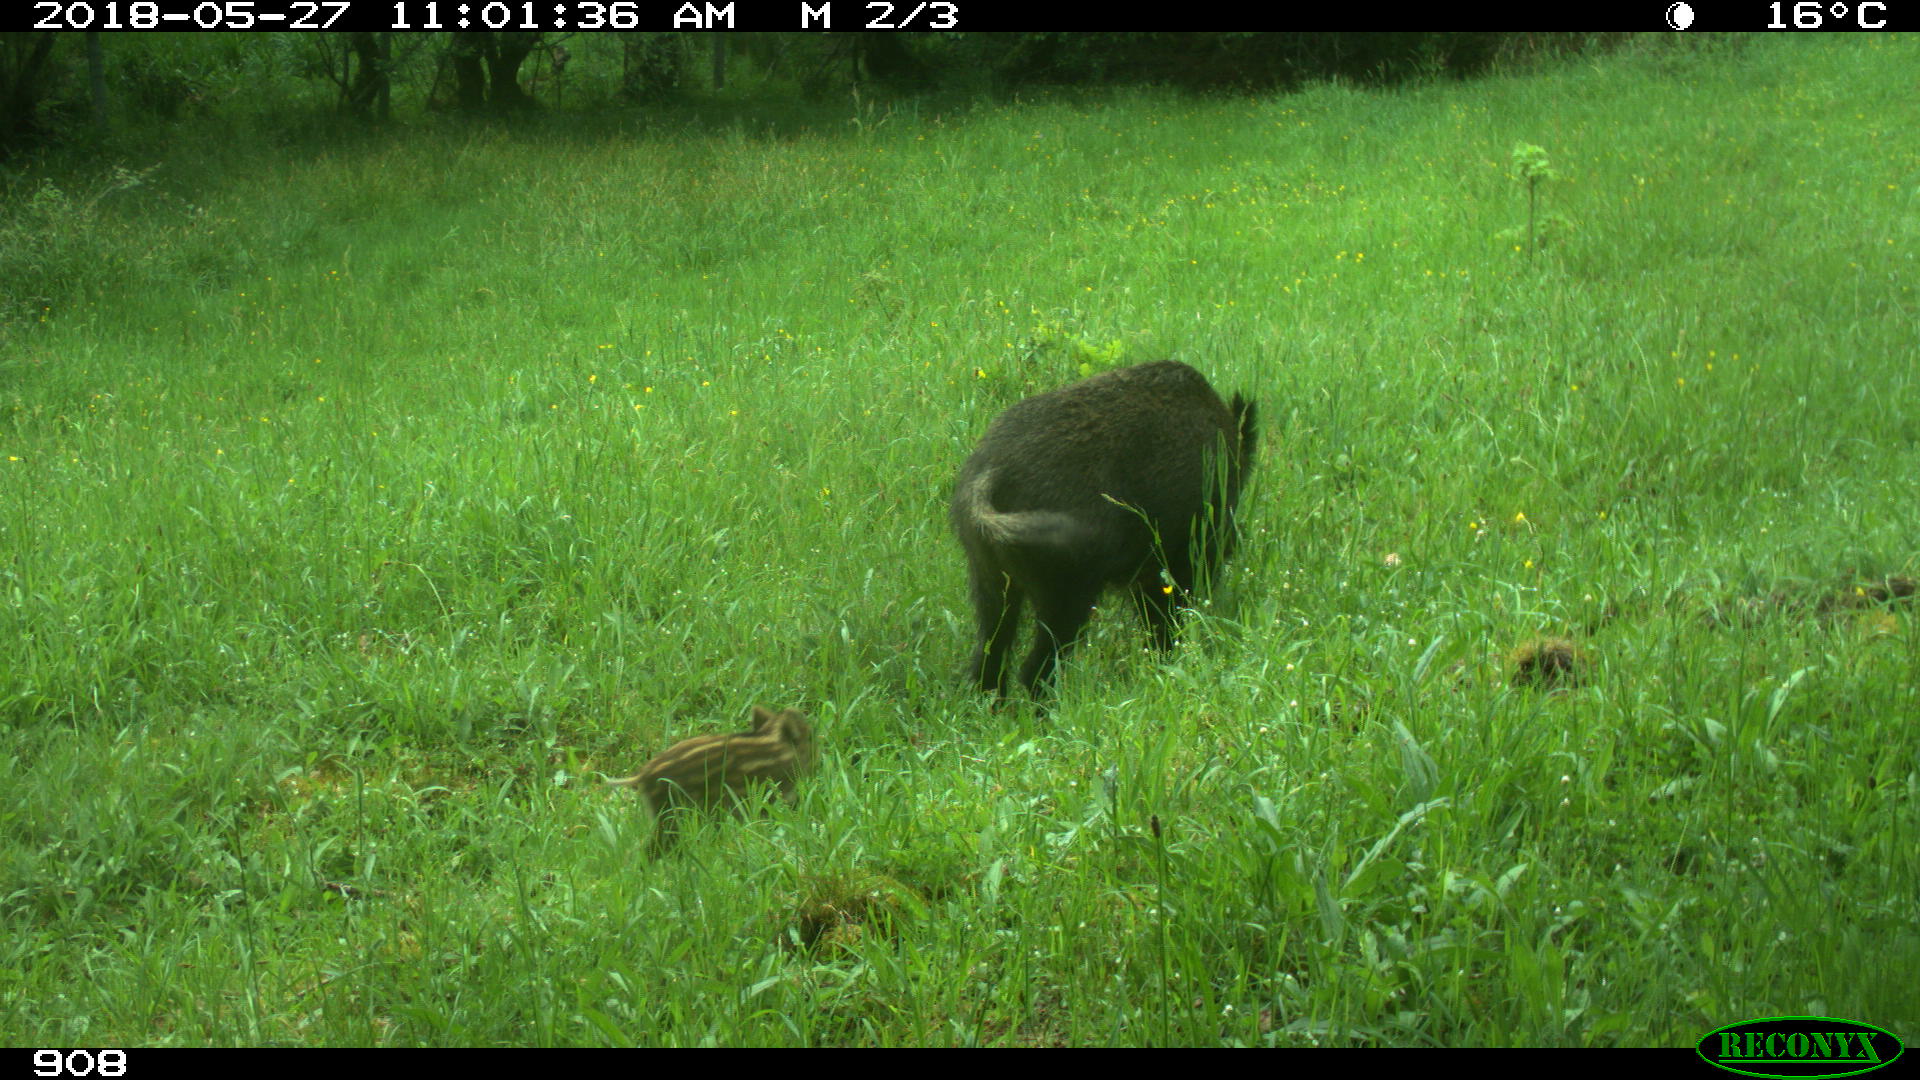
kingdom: Animalia
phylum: Chordata
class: Mammalia
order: Artiodactyla
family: Suidae
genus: Sus
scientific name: Sus scrofa
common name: Wild boar
